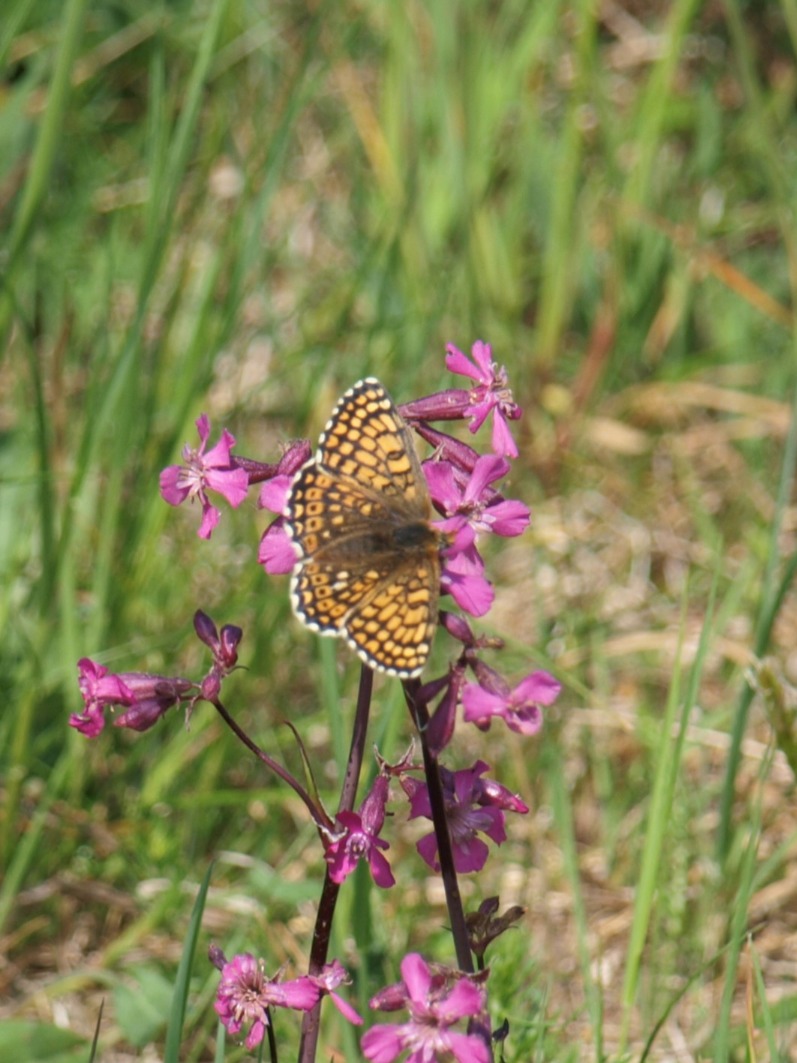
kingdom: Animalia
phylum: Arthropoda
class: Insecta
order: Lepidoptera
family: Nymphalidae
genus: Melitaea
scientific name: Melitaea cinxia
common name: Okkergul pletvinge
